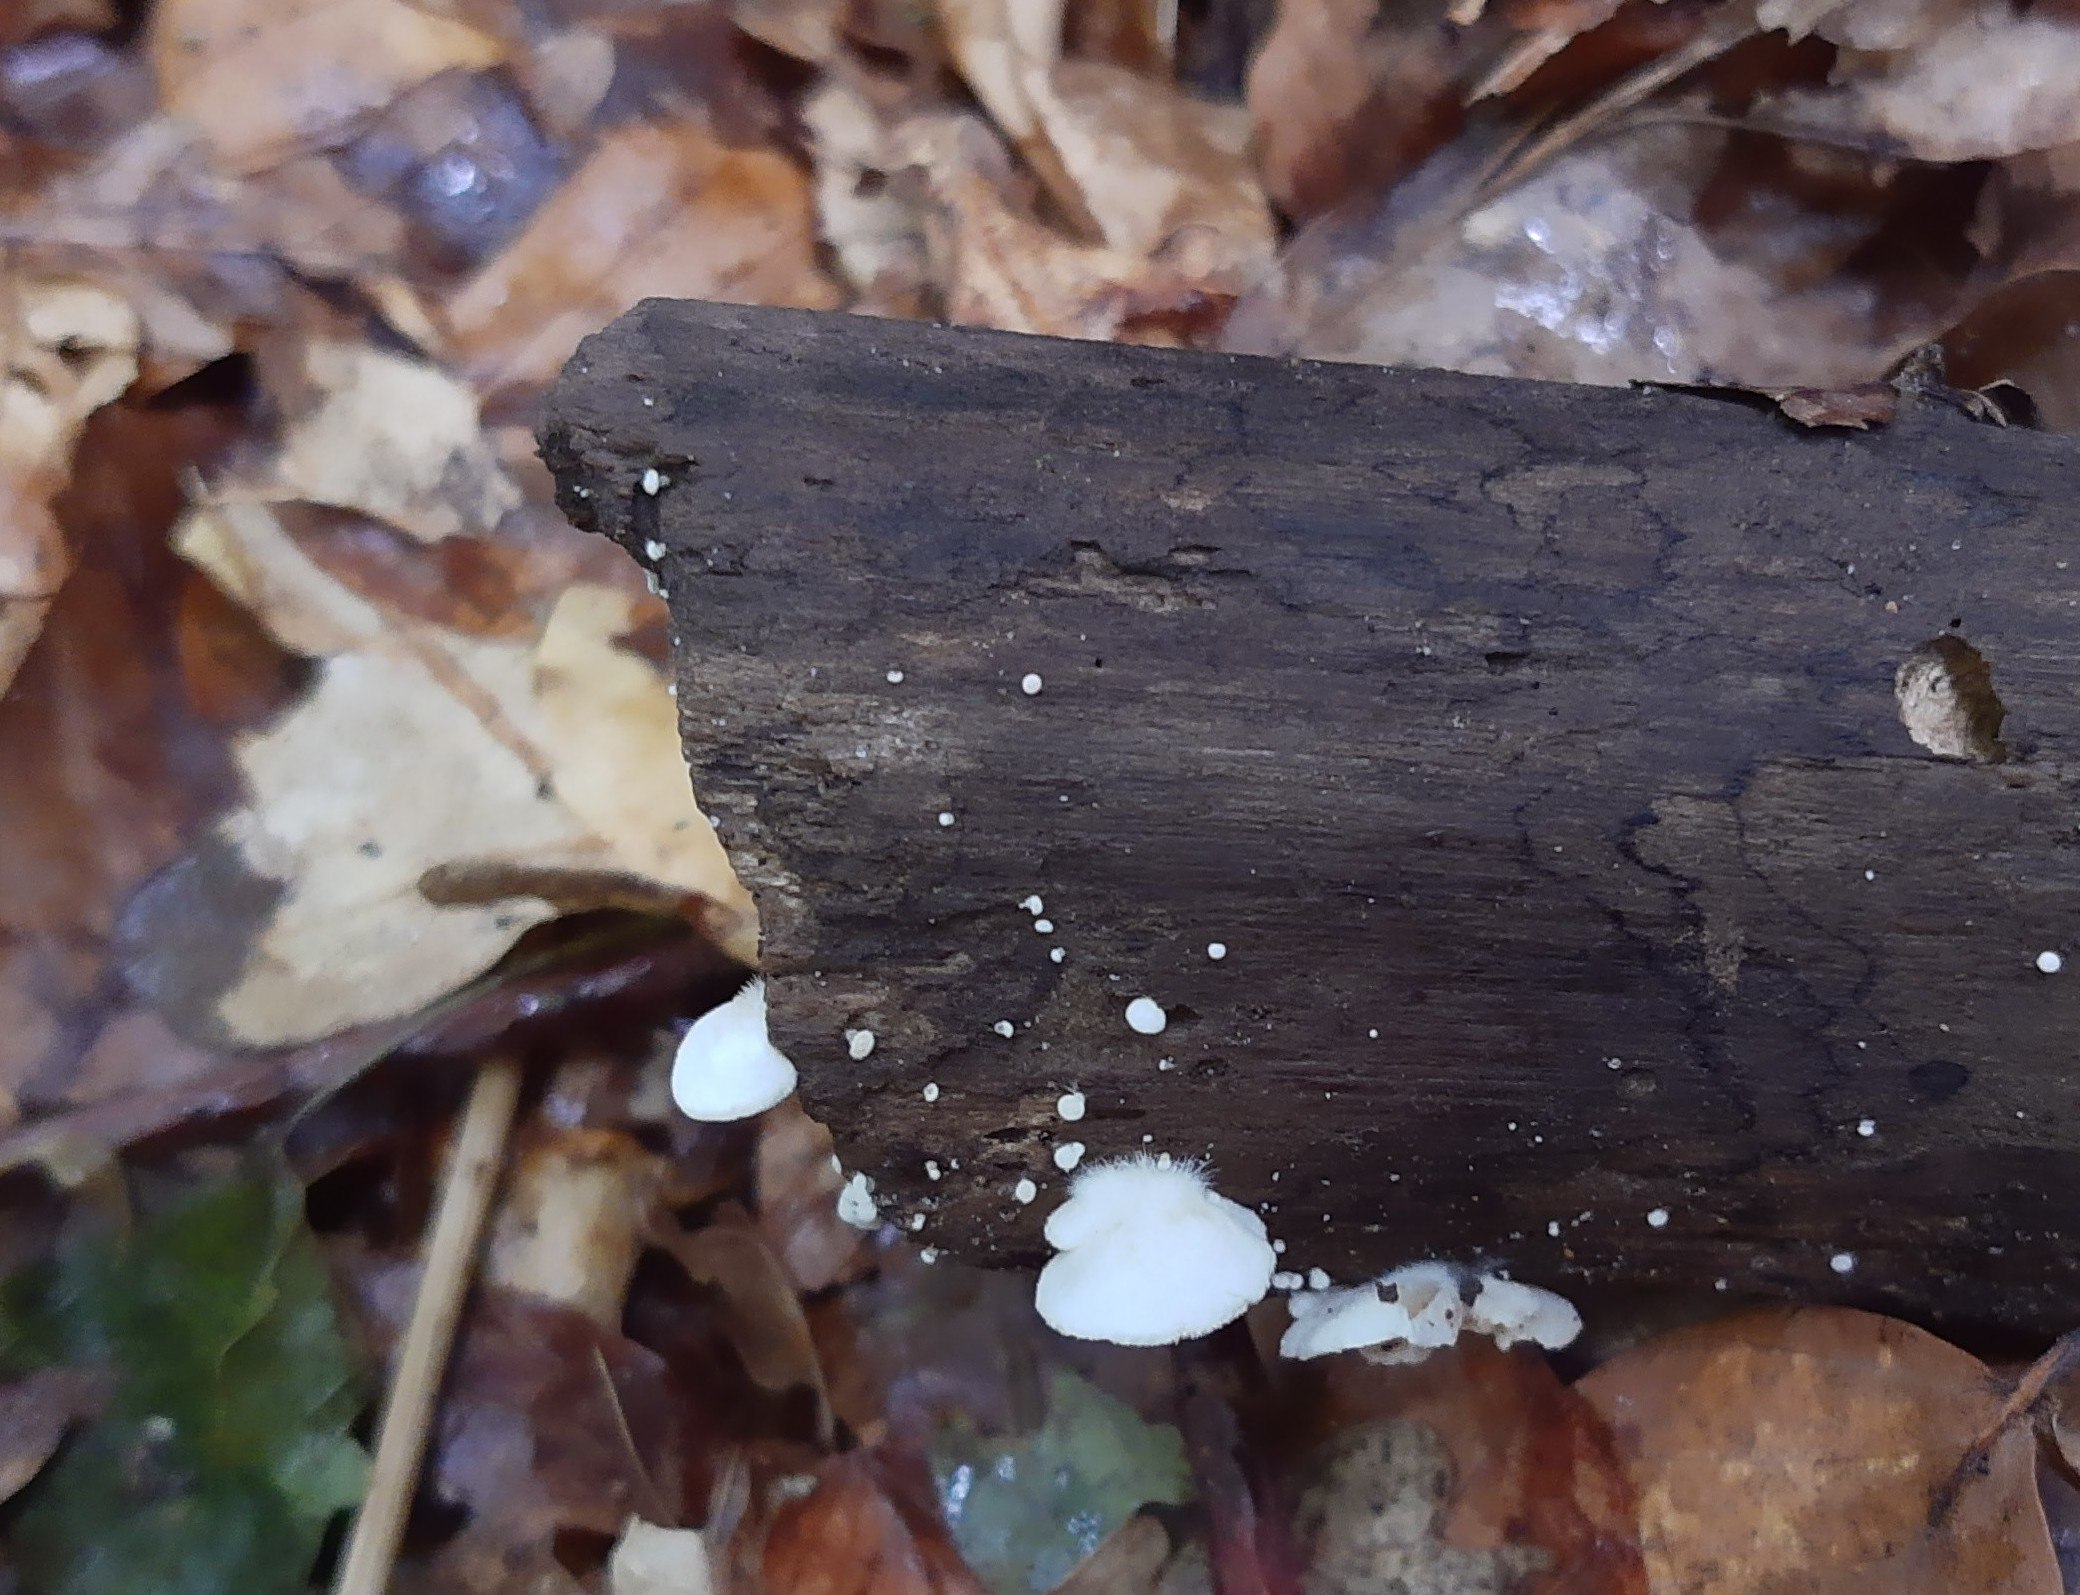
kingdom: Fungi
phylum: Basidiomycota
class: Agaricomycetes
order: Agaricales
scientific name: Agaricales
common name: champignonordenen
